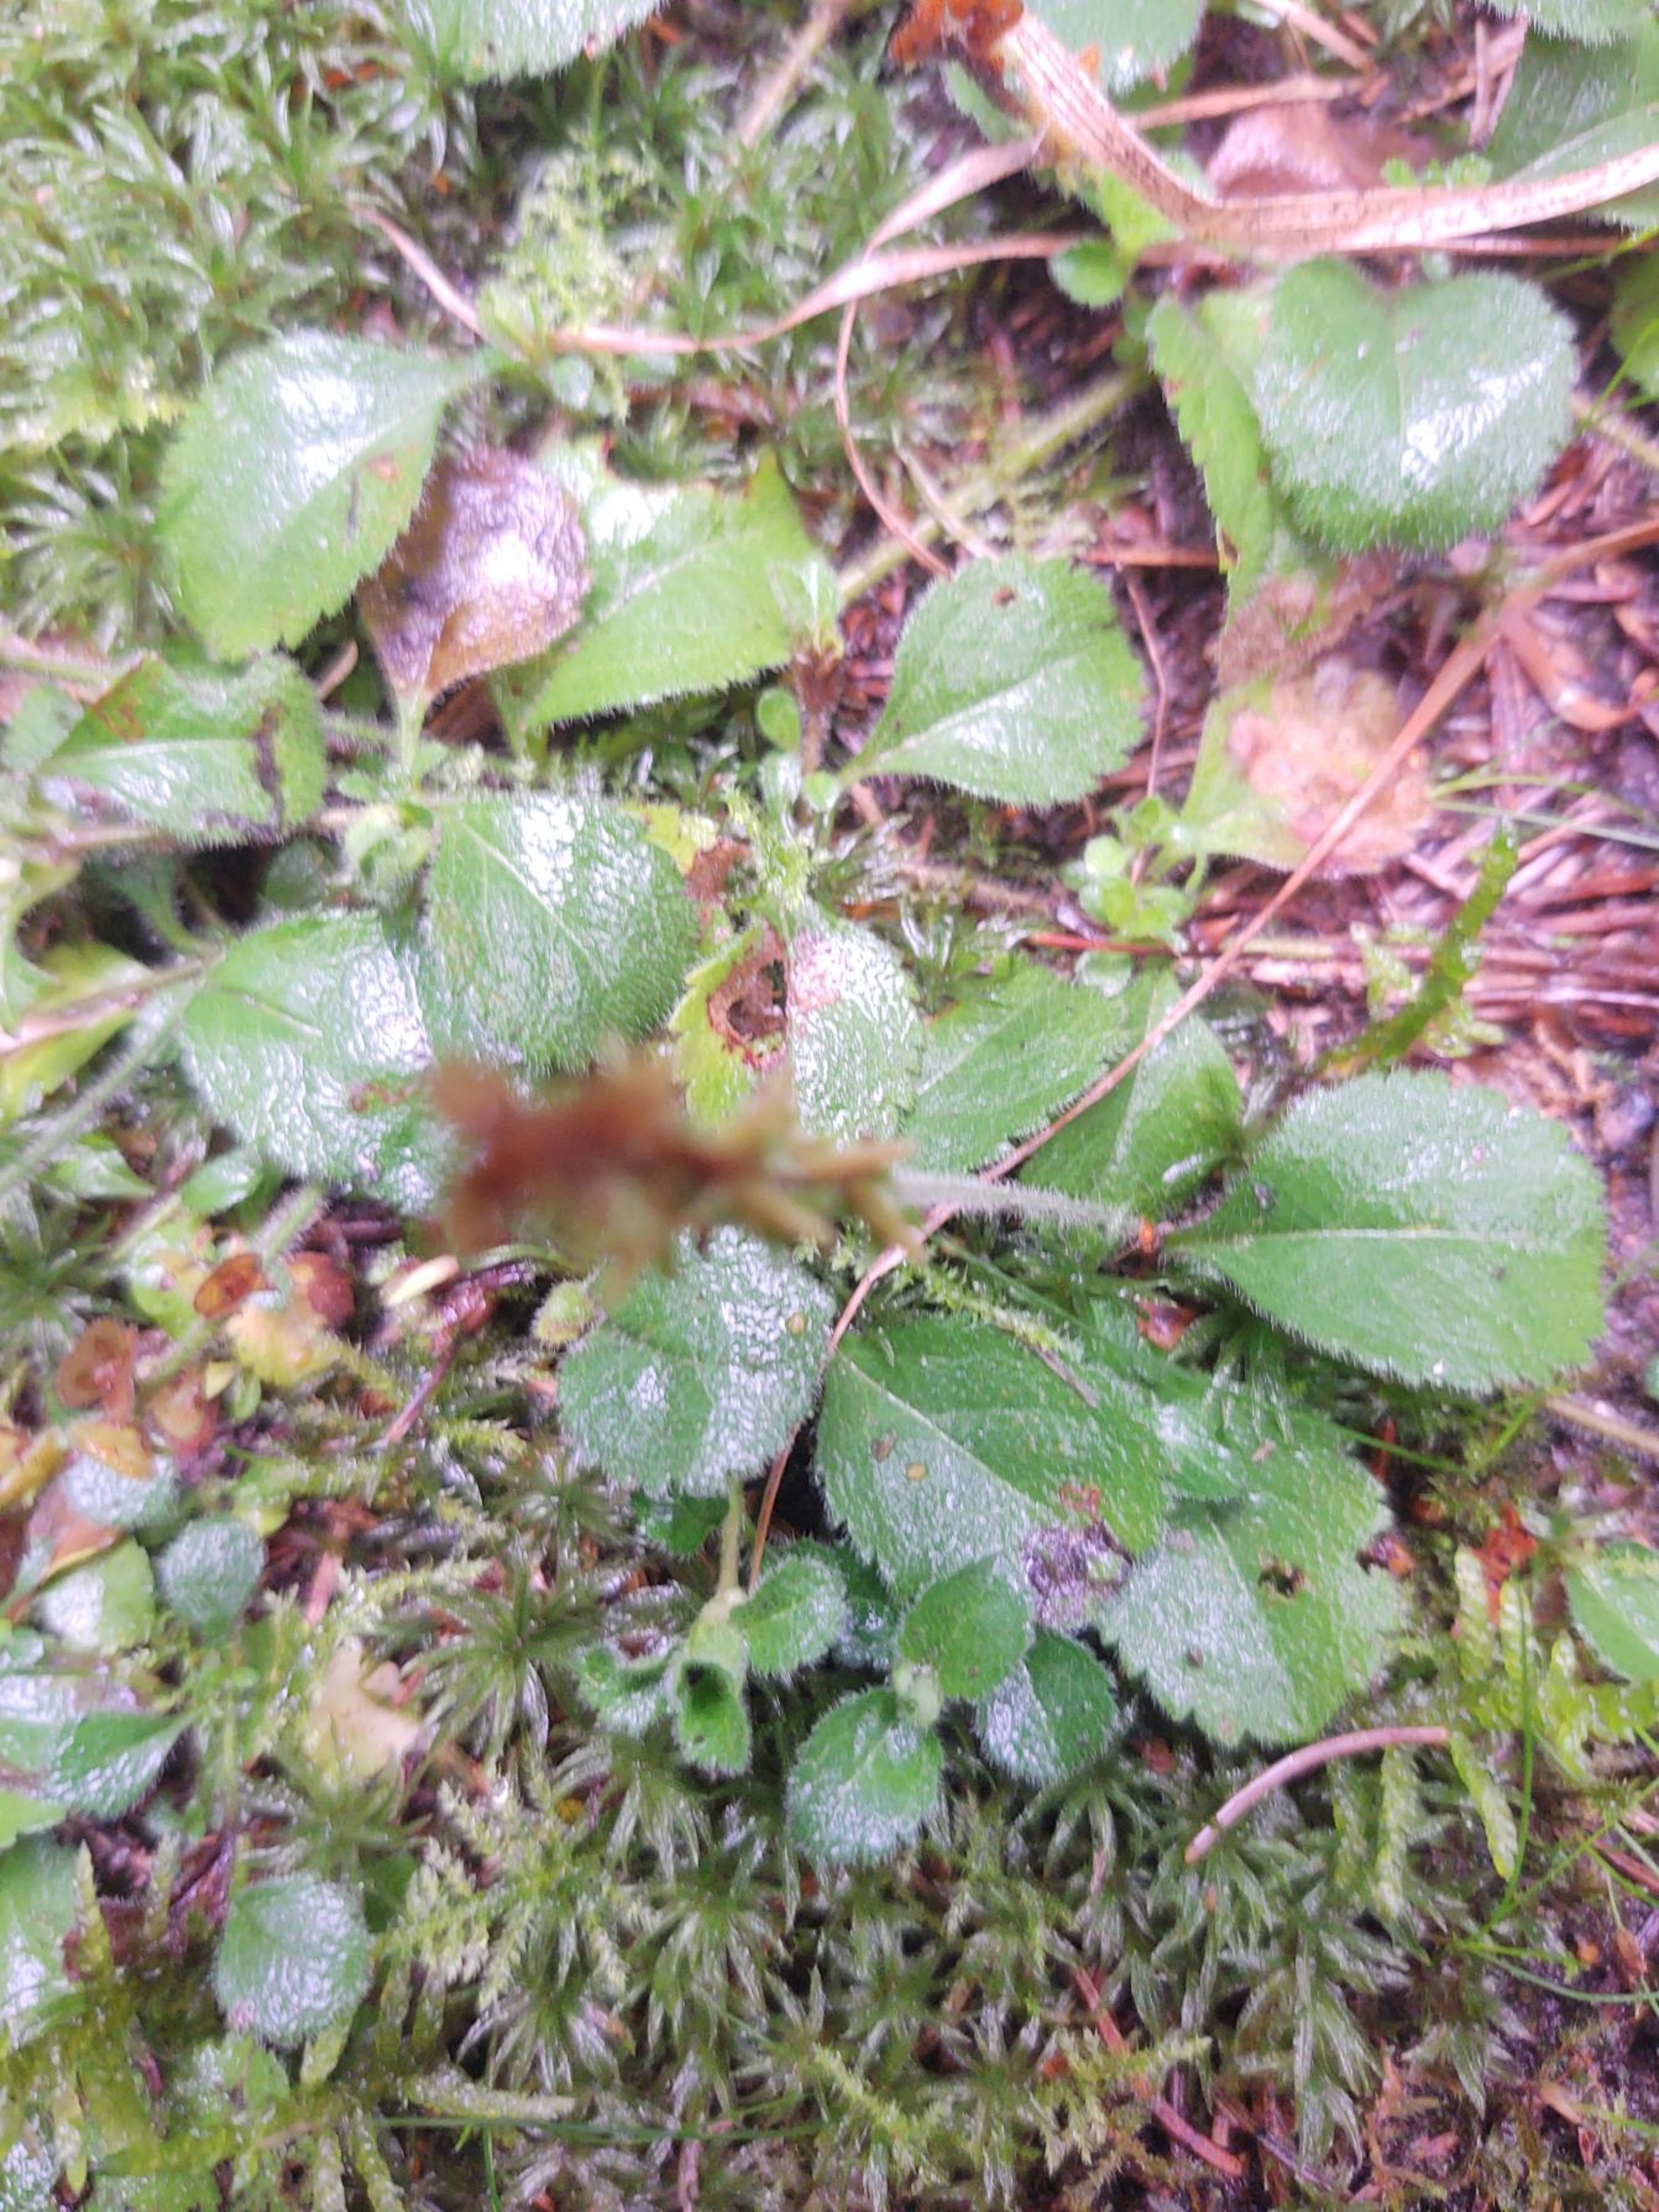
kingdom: Plantae
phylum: Tracheophyta
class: Magnoliopsida
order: Lamiales
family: Plantaginaceae
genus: Veronica
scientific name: Veronica officinalis
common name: Læge-ærenpris
